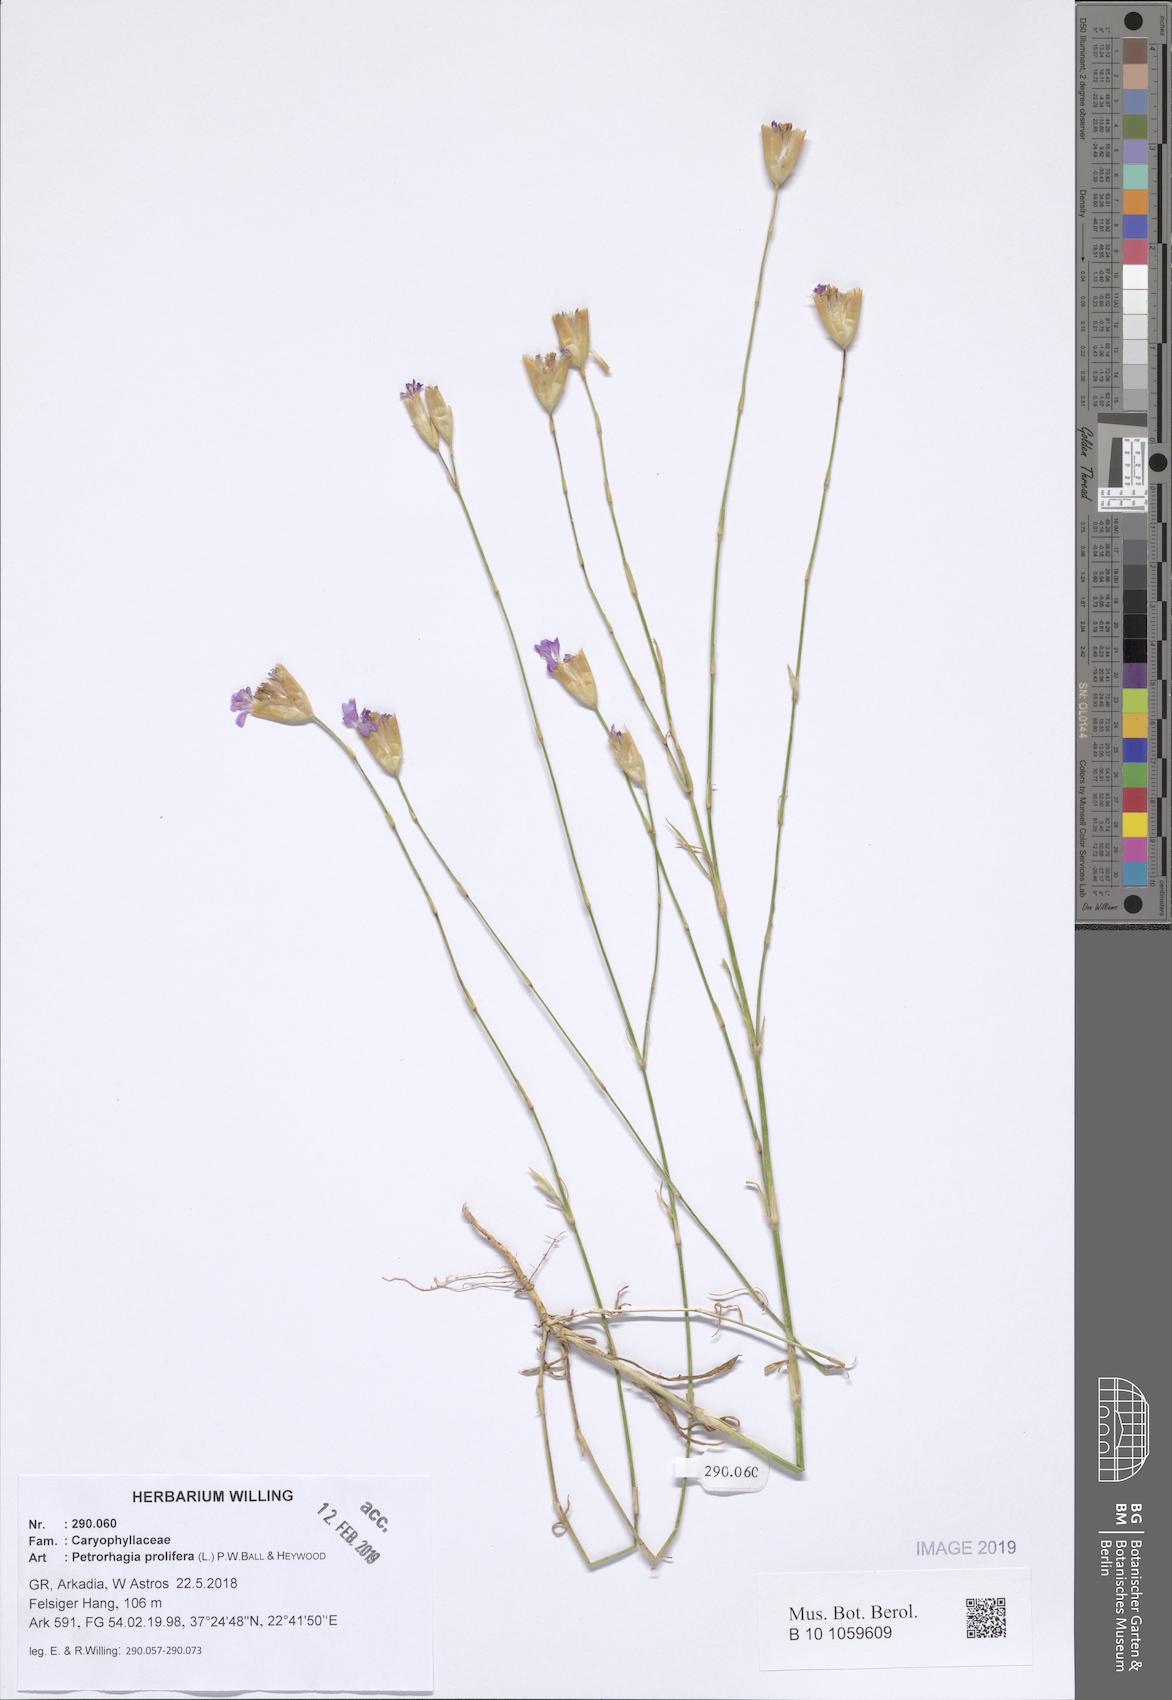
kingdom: Plantae
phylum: Tracheophyta
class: Magnoliopsida
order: Caryophyllales
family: Caryophyllaceae
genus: Petrorhagia
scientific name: Petrorhagia prolifera
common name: Proliferous pink
